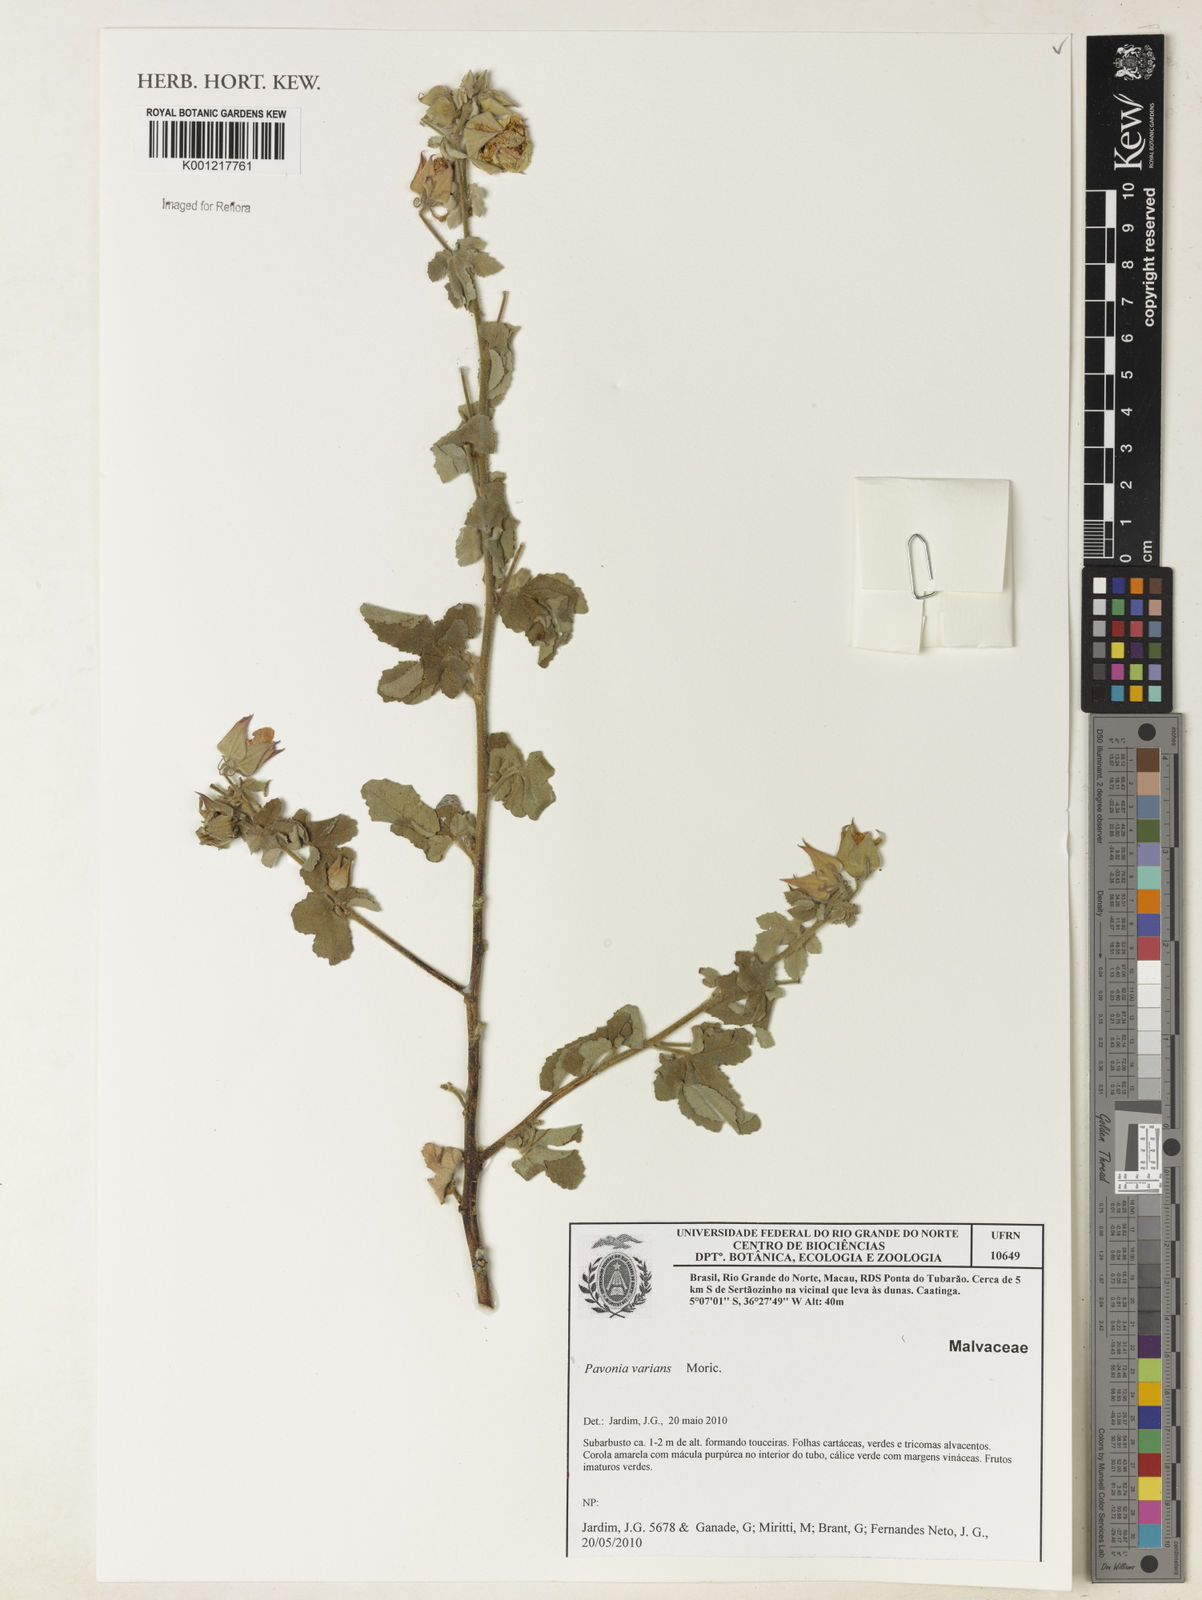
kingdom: Plantae
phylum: Tracheophyta
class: Magnoliopsida
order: Malvales
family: Malvaceae
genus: Pavonia
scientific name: Pavonia varians
